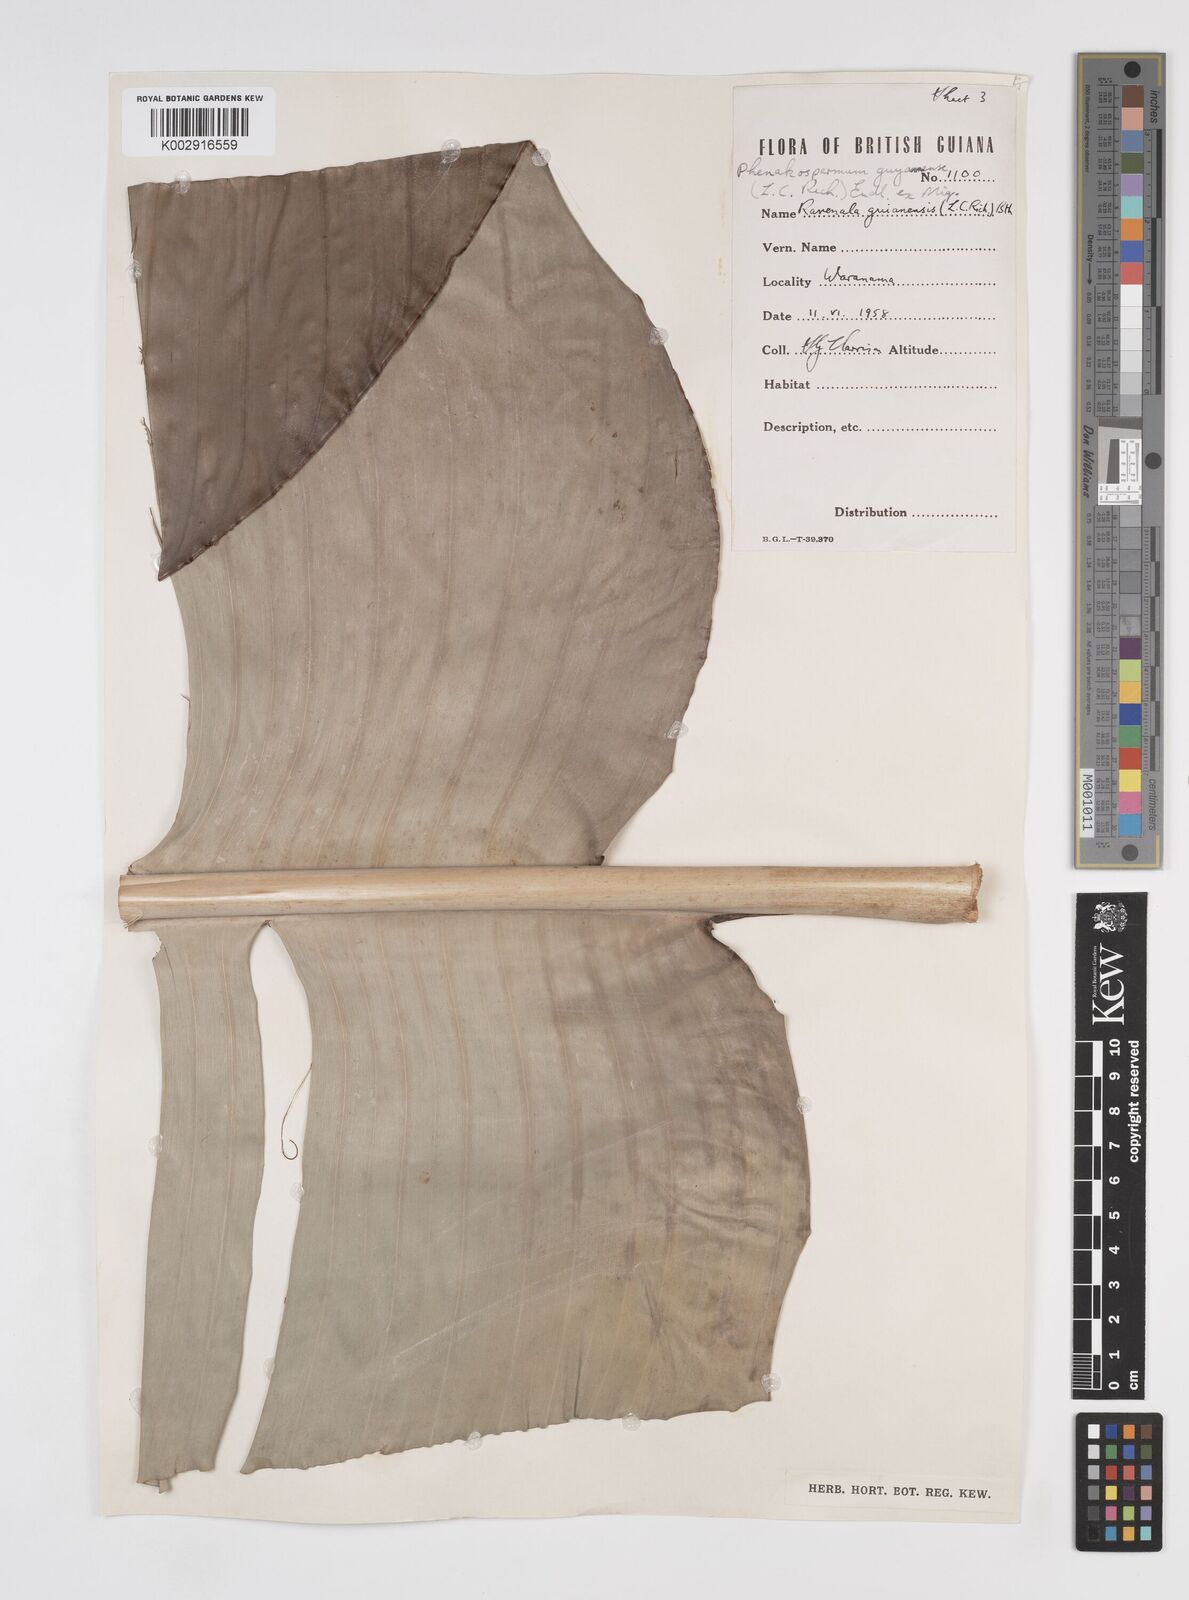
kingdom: Plantae
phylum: Tracheophyta
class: Liliopsida
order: Zingiberales
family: Strelitziaceae
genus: Phenakospermum
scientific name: Phenakospermum guyannense
